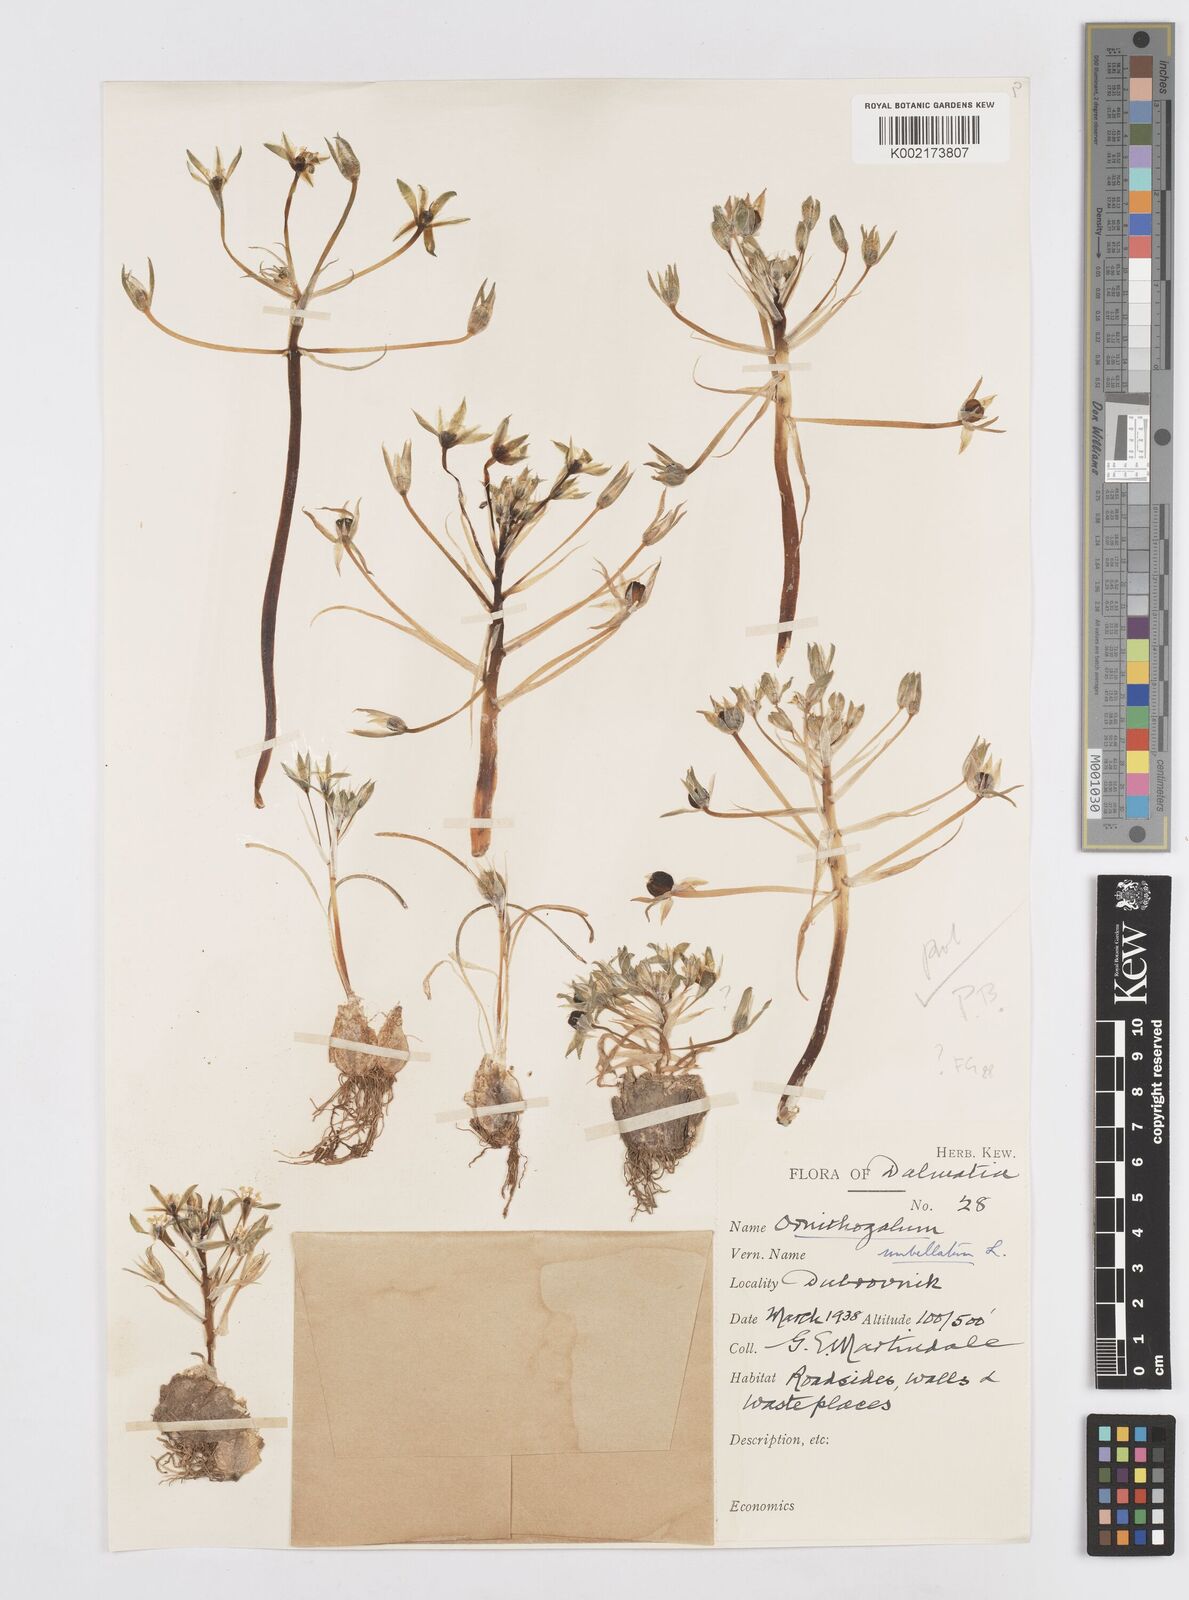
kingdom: Plantae
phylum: Tracheophyta
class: Liliopsida
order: Asparagales
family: Asparagaceae
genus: Ornithogalum
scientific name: Ornithogalum umbellatum
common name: Garden star-of-bethlehem
